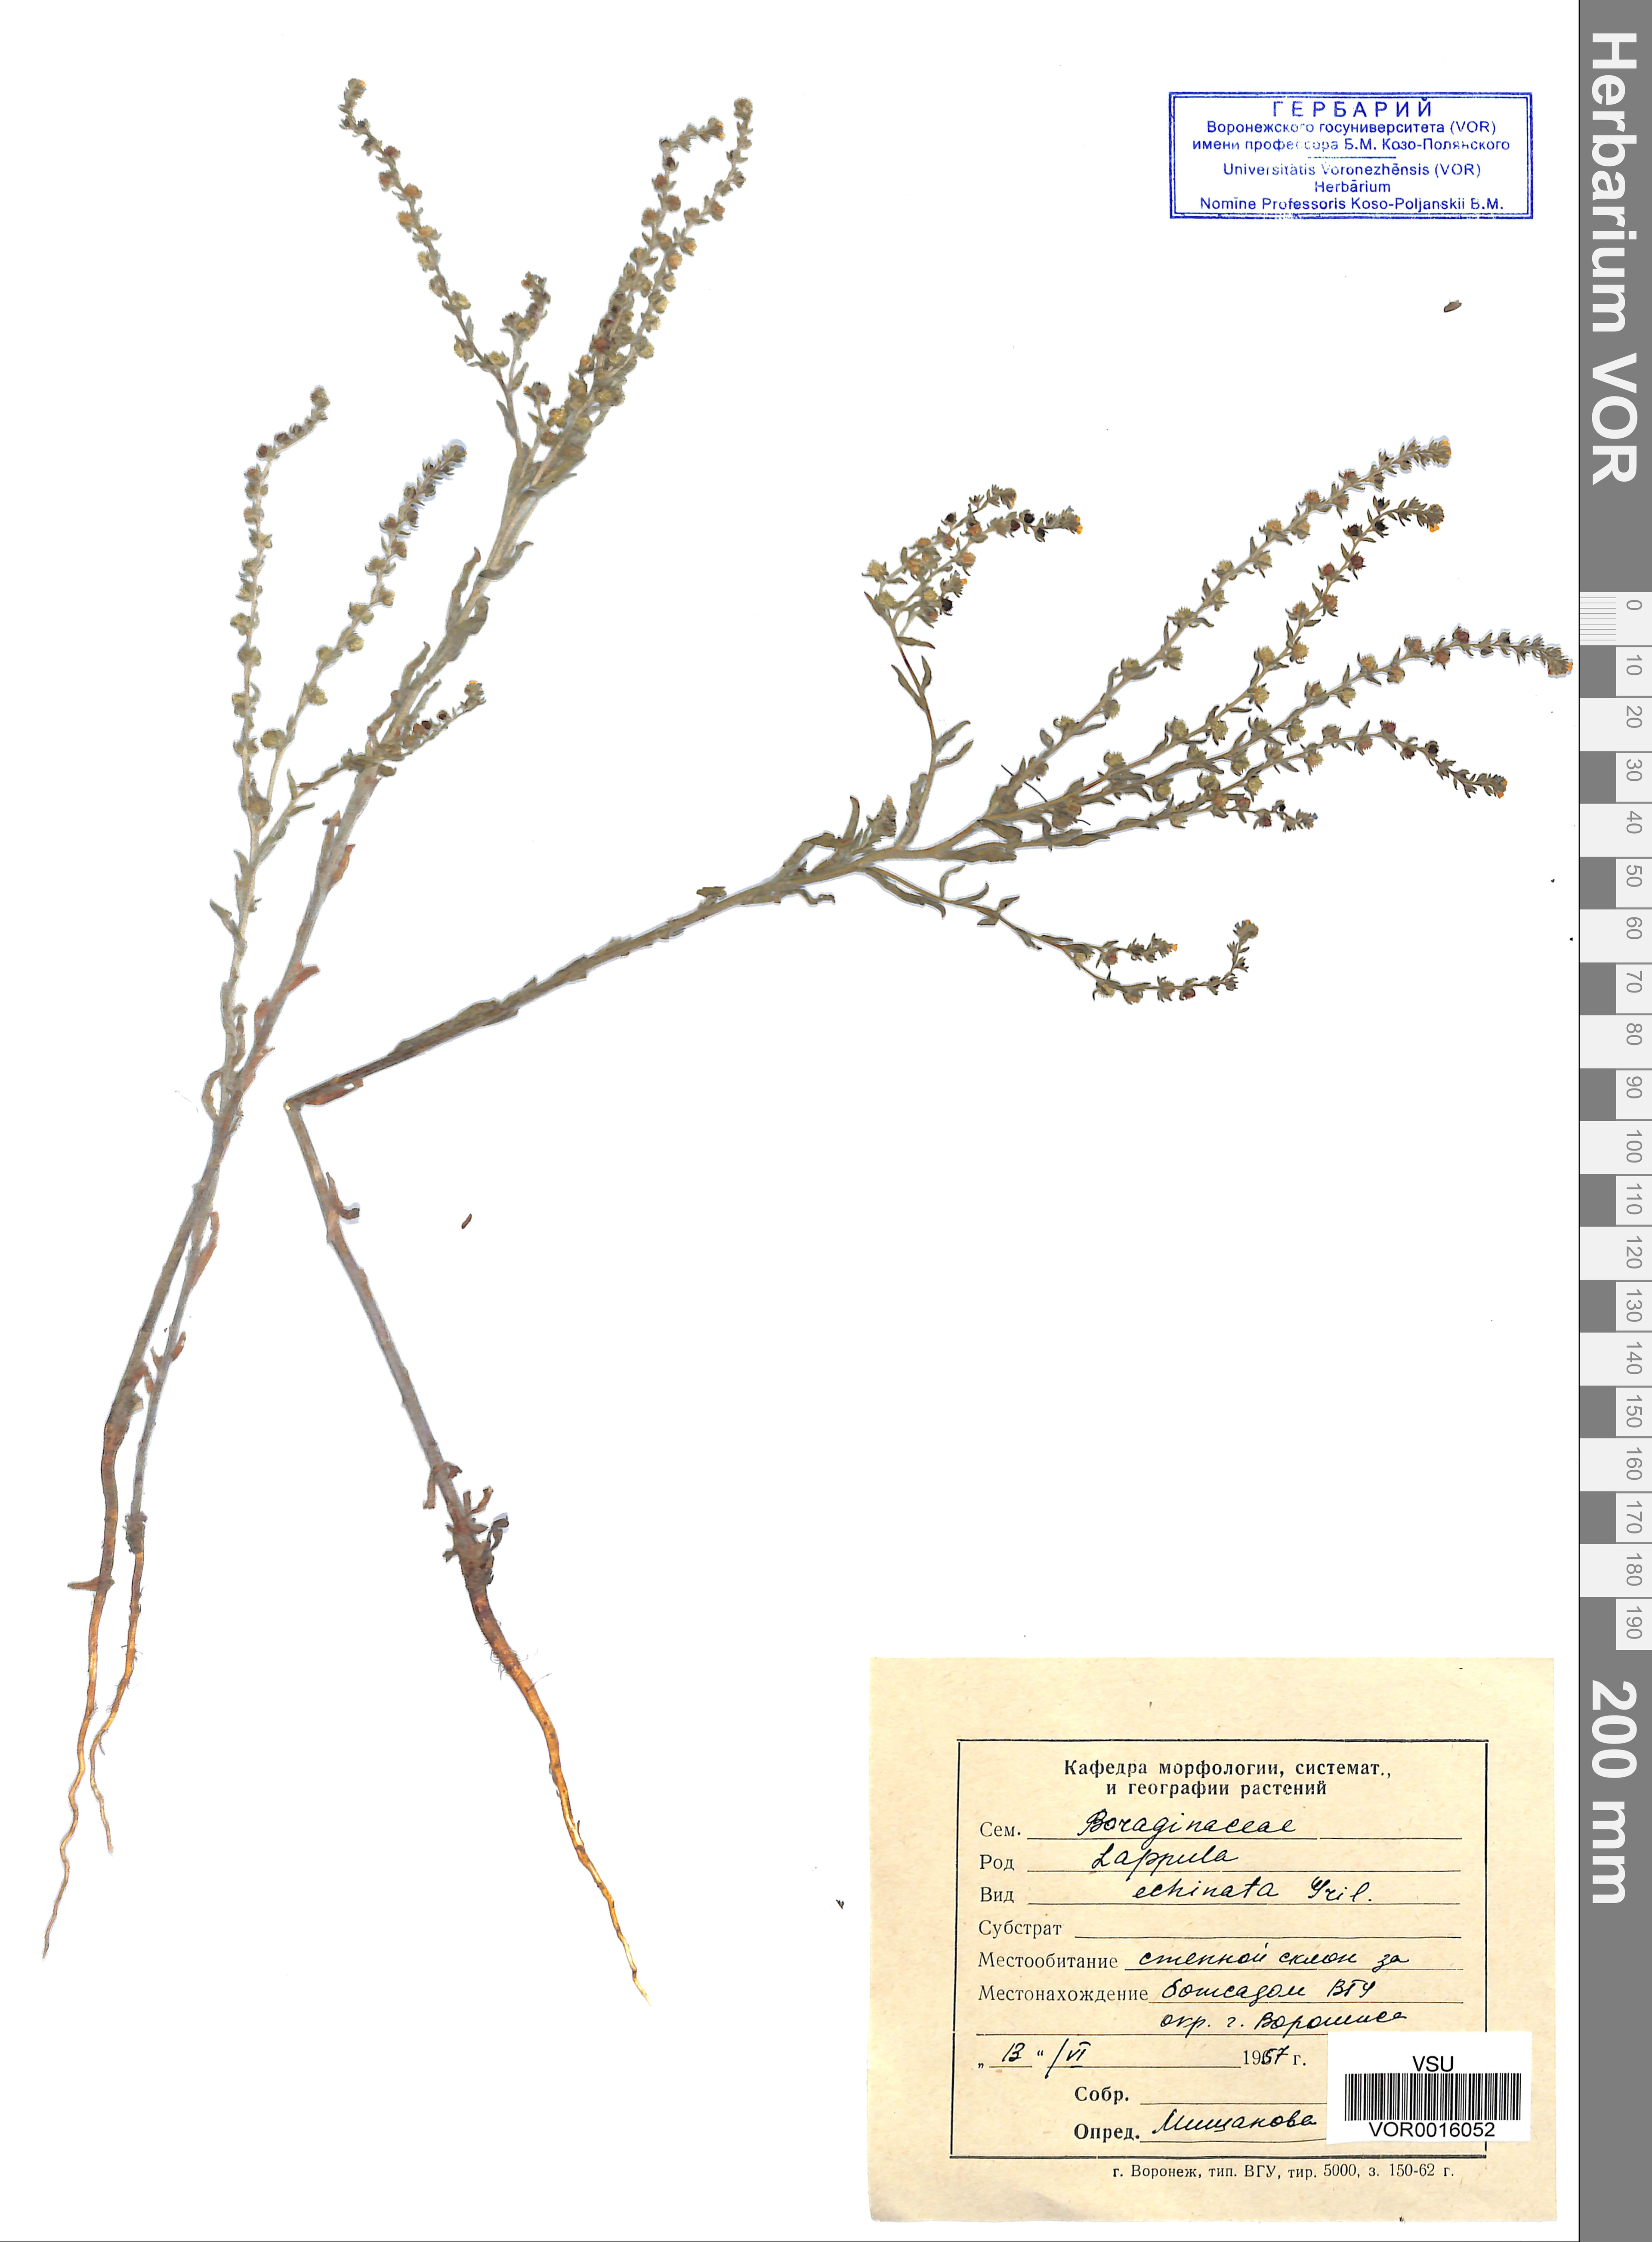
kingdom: Plantae
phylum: Tracheophyta
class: Magnoliopsida
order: Boraginales
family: Boraginaceae
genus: Lappula
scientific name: Lappula squarrosa
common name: European stickseed
